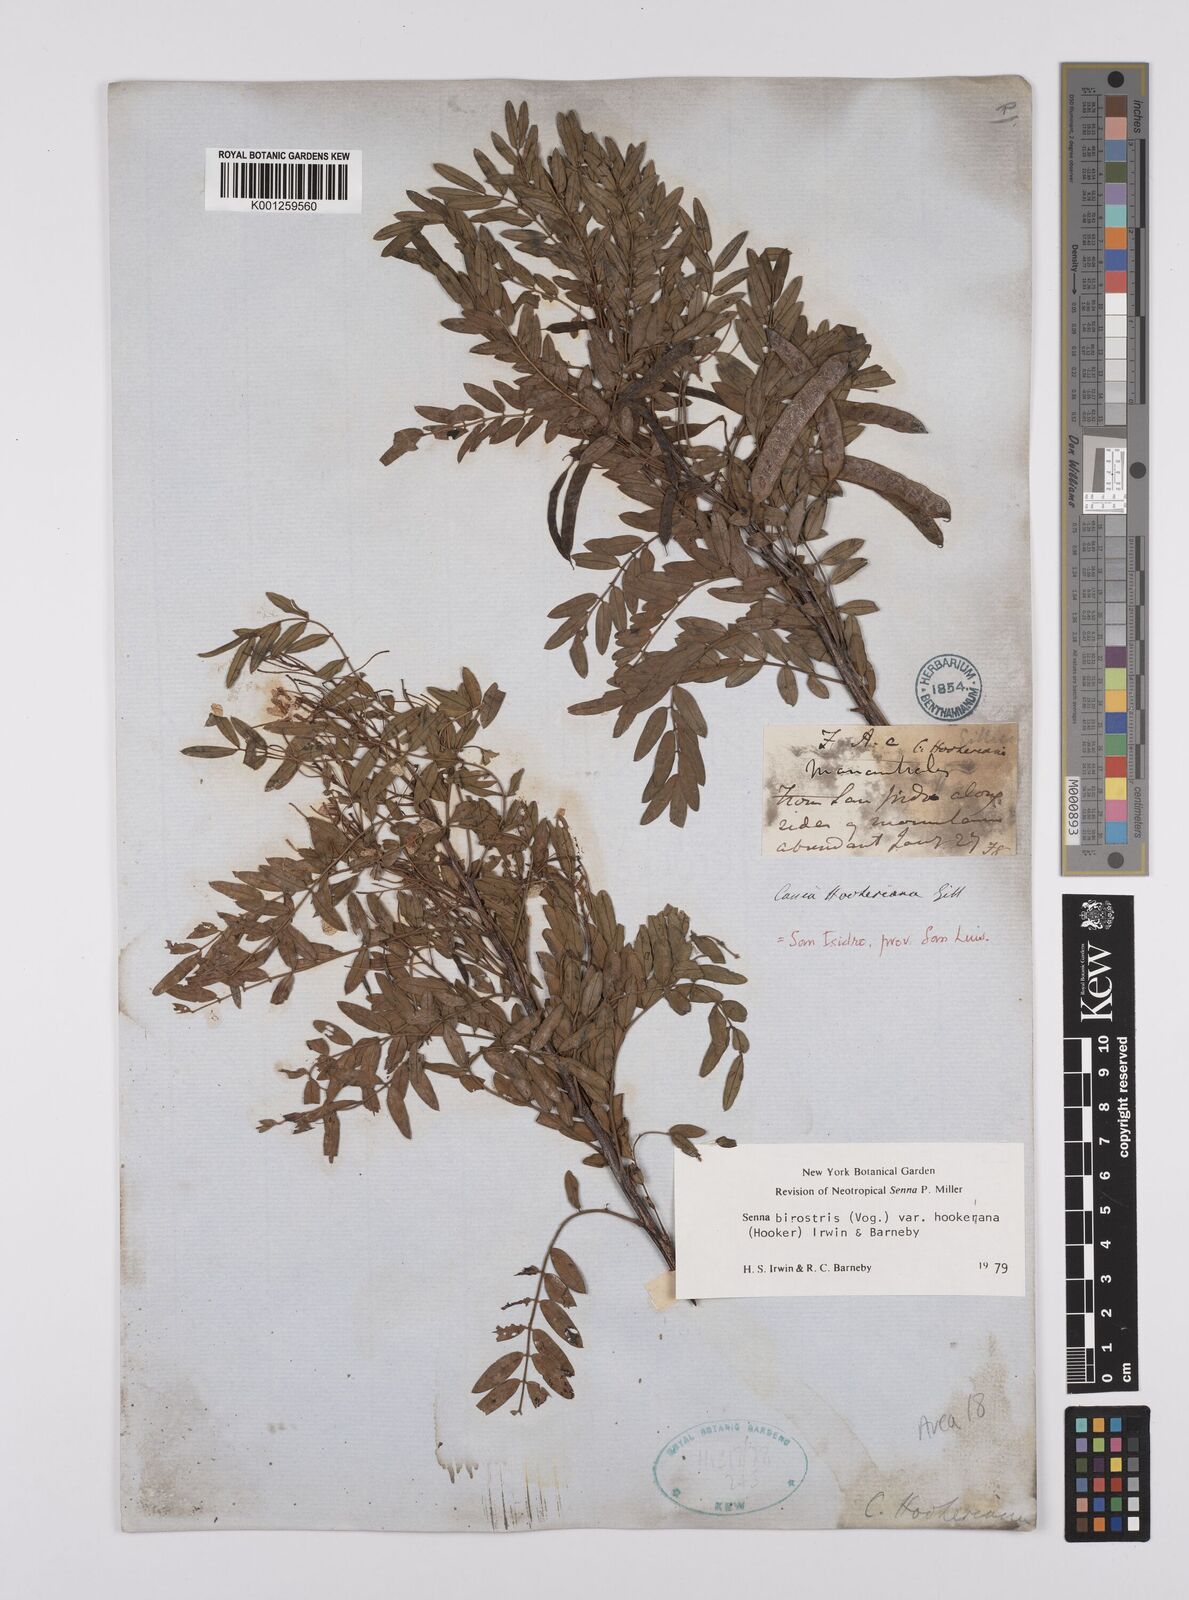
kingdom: Plantae
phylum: Tracheophyta
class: Magnoliopsida
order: Fabales
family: Fabaceae
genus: Senna
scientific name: Senna birostris
